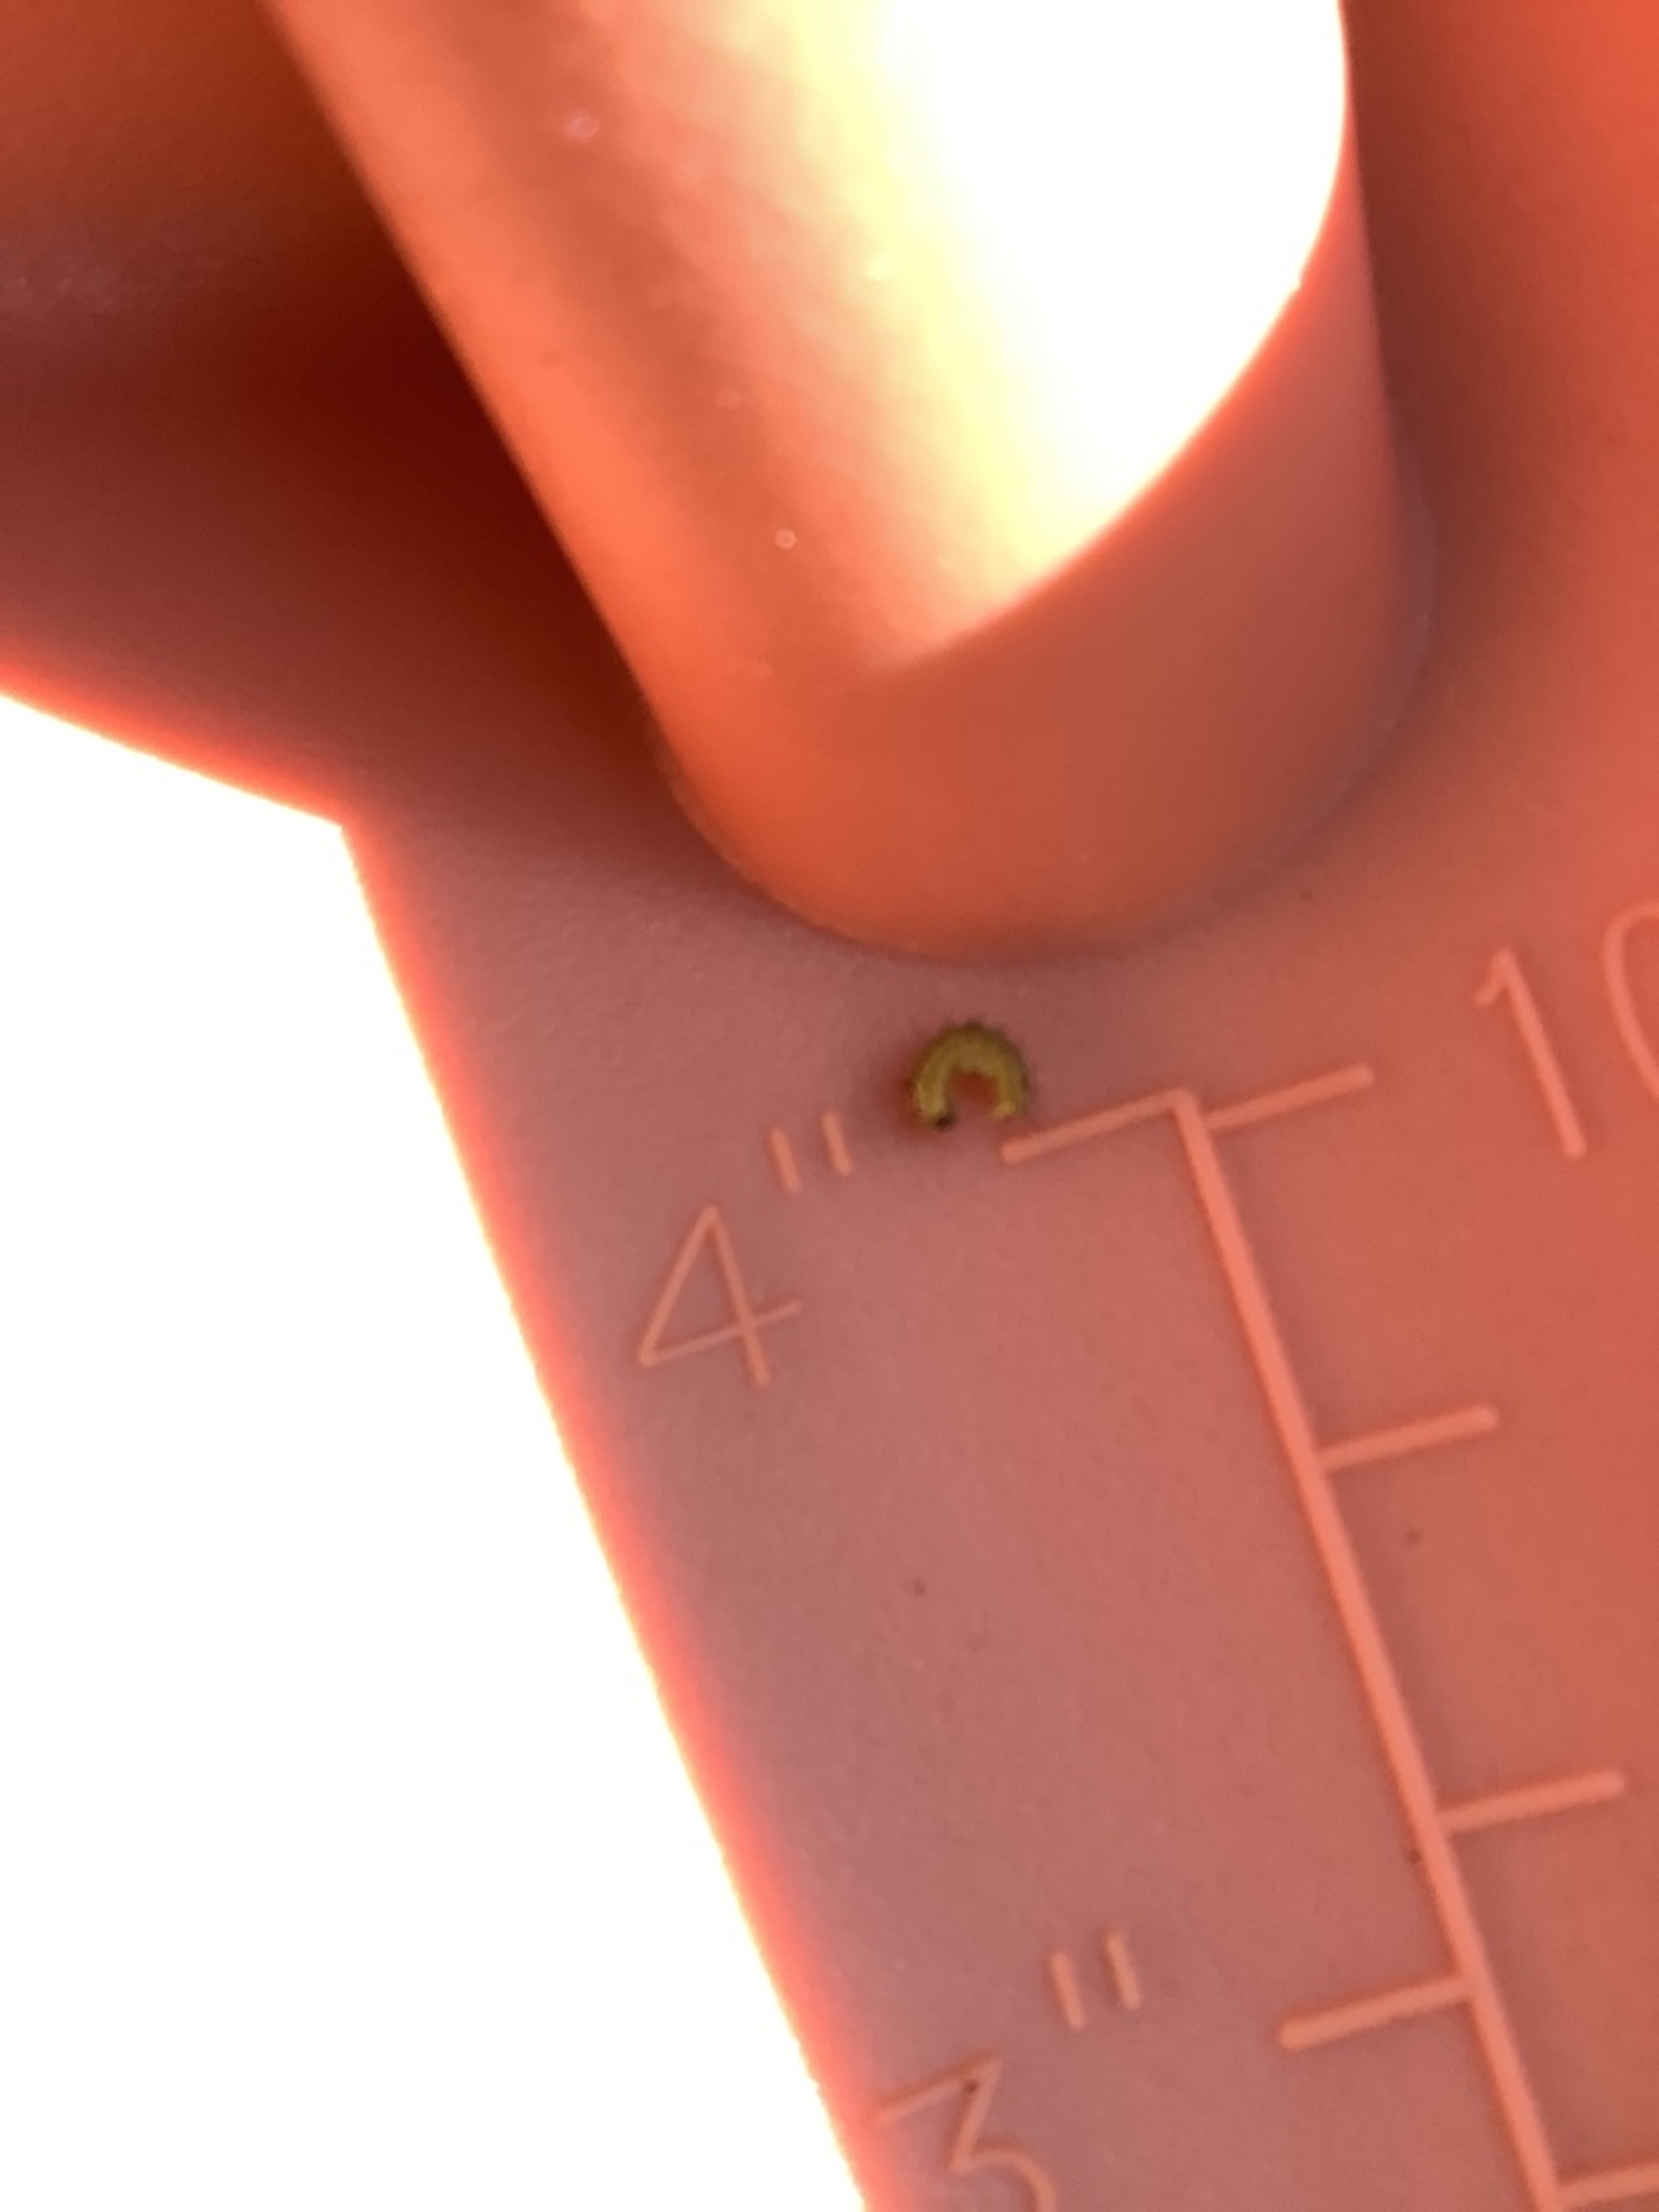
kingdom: Animalia
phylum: Arthropoda
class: Insecta
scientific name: Insecta
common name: Insekter
